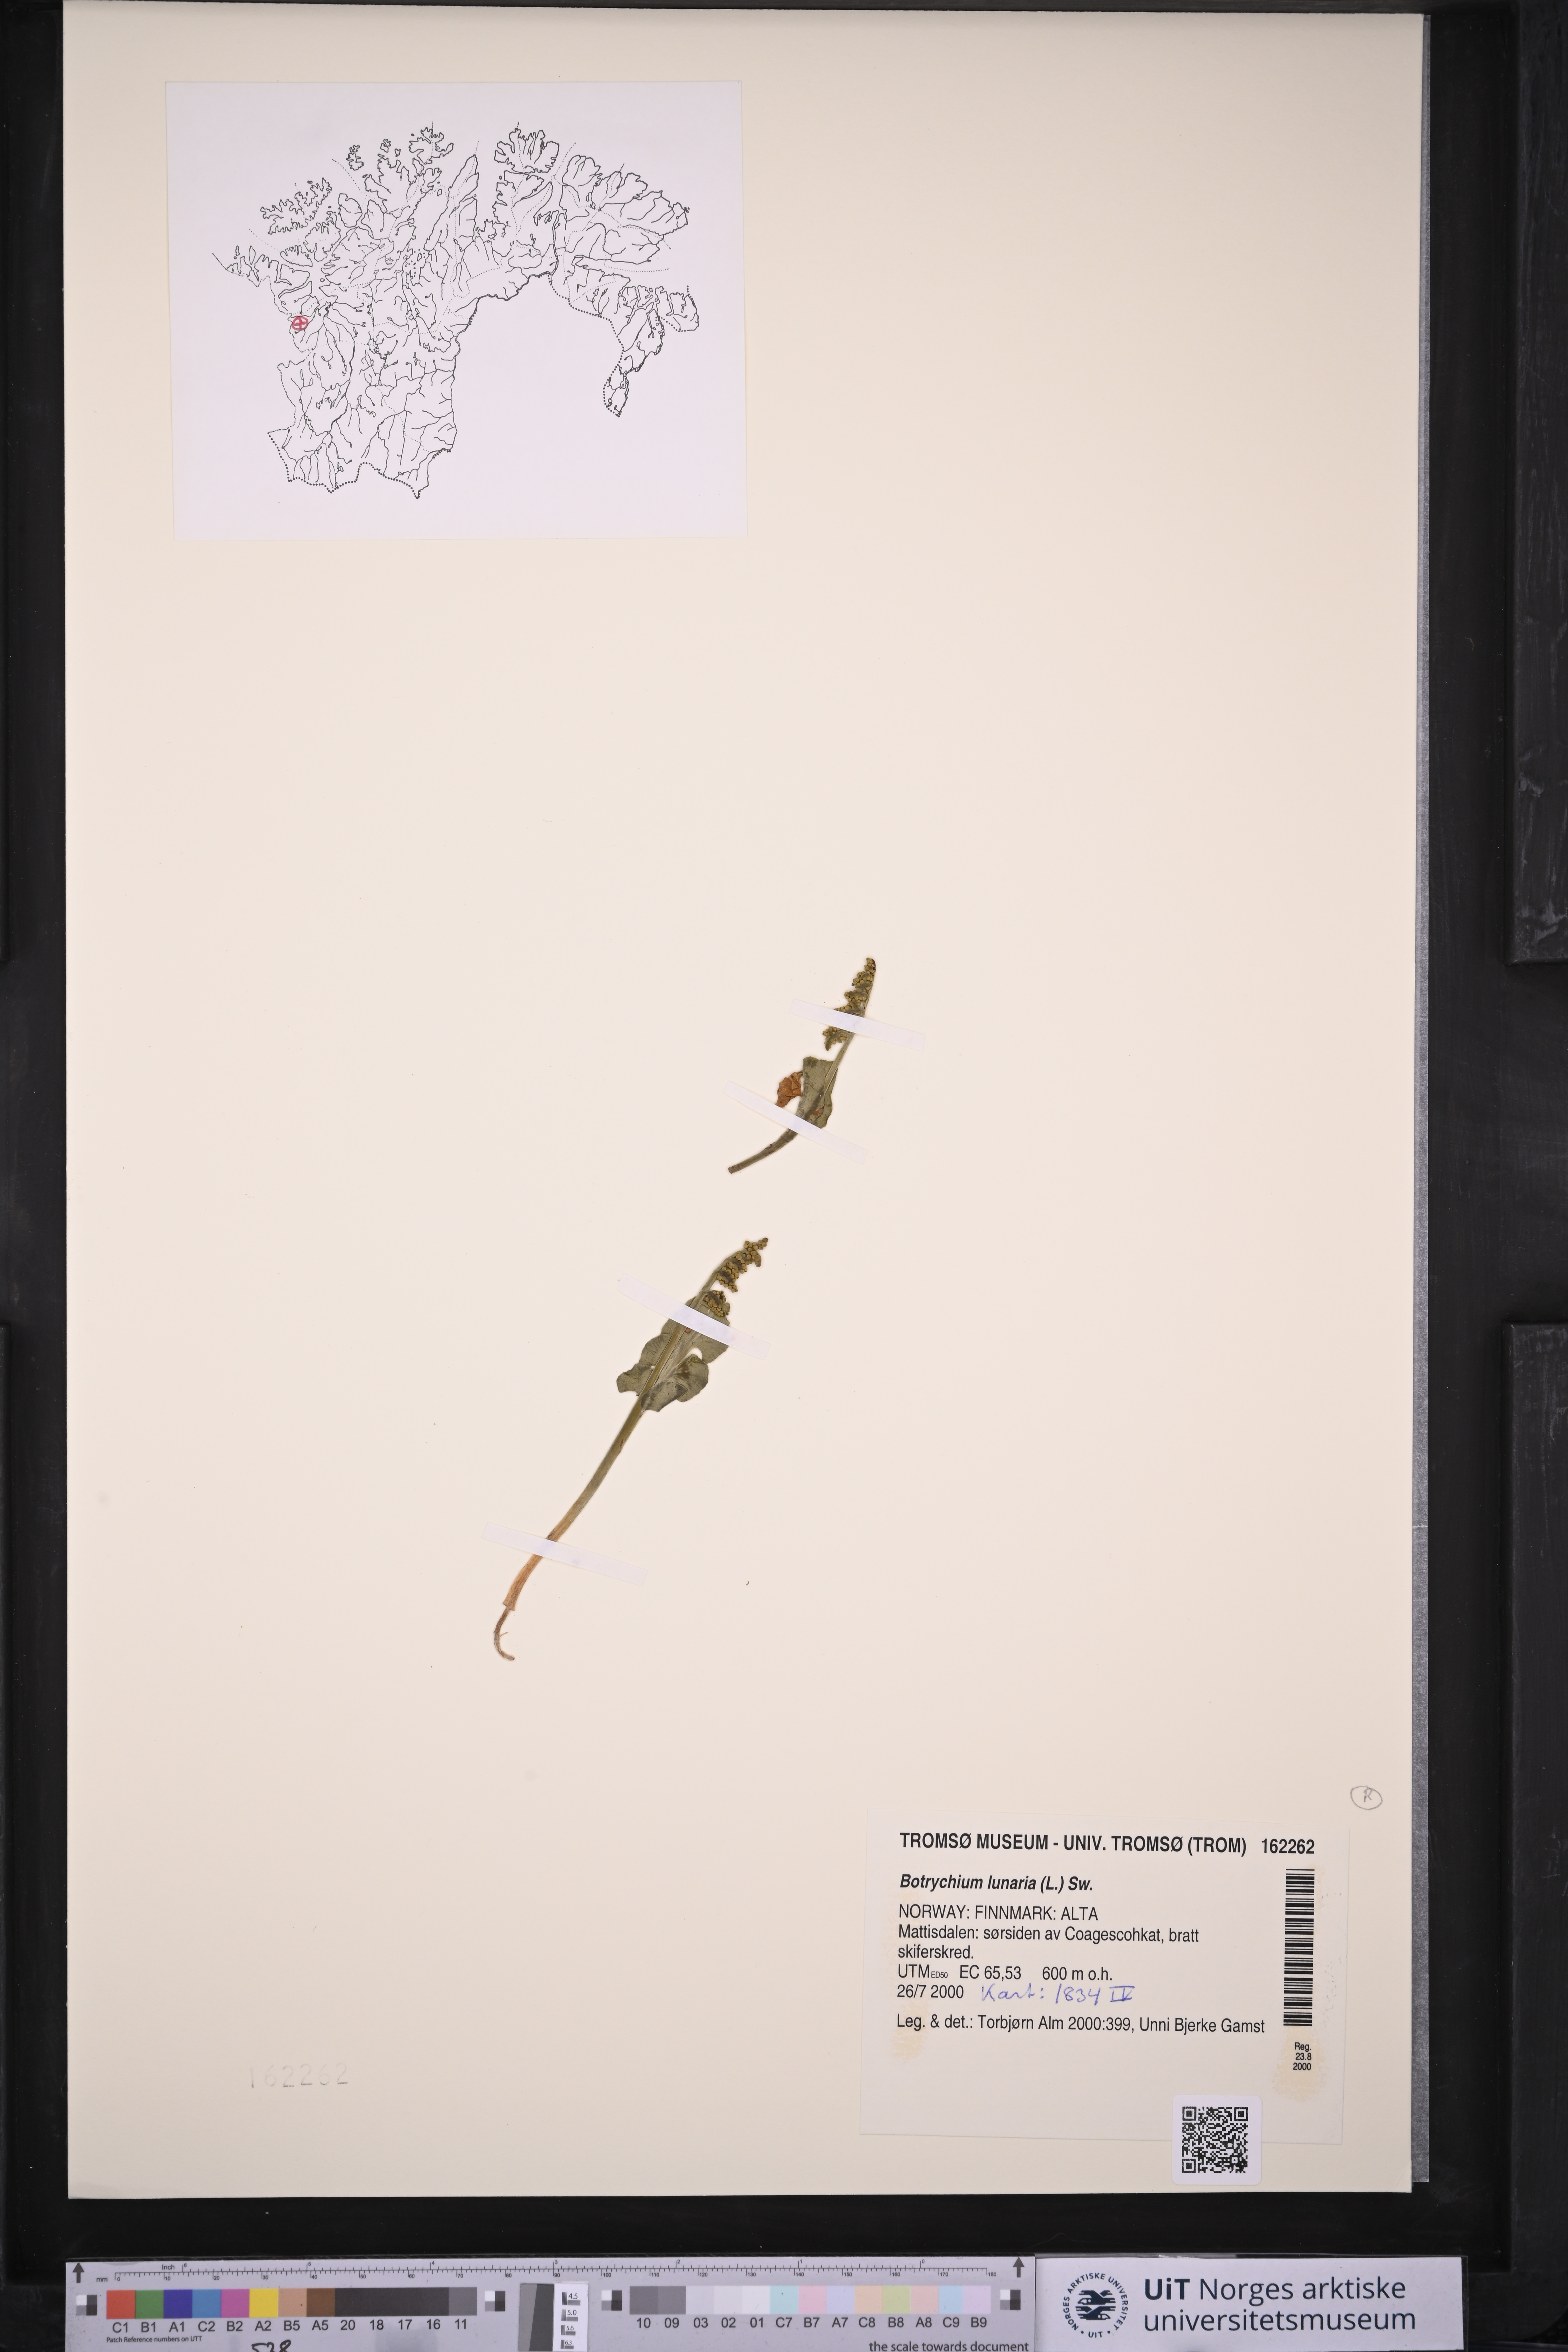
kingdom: Plantae
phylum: Tracheophyta
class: Polypodiopsida
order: Ophioglossales
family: Ophioglossaceae
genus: Botrychium
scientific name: Botrychium lunaria
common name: Moonwort
